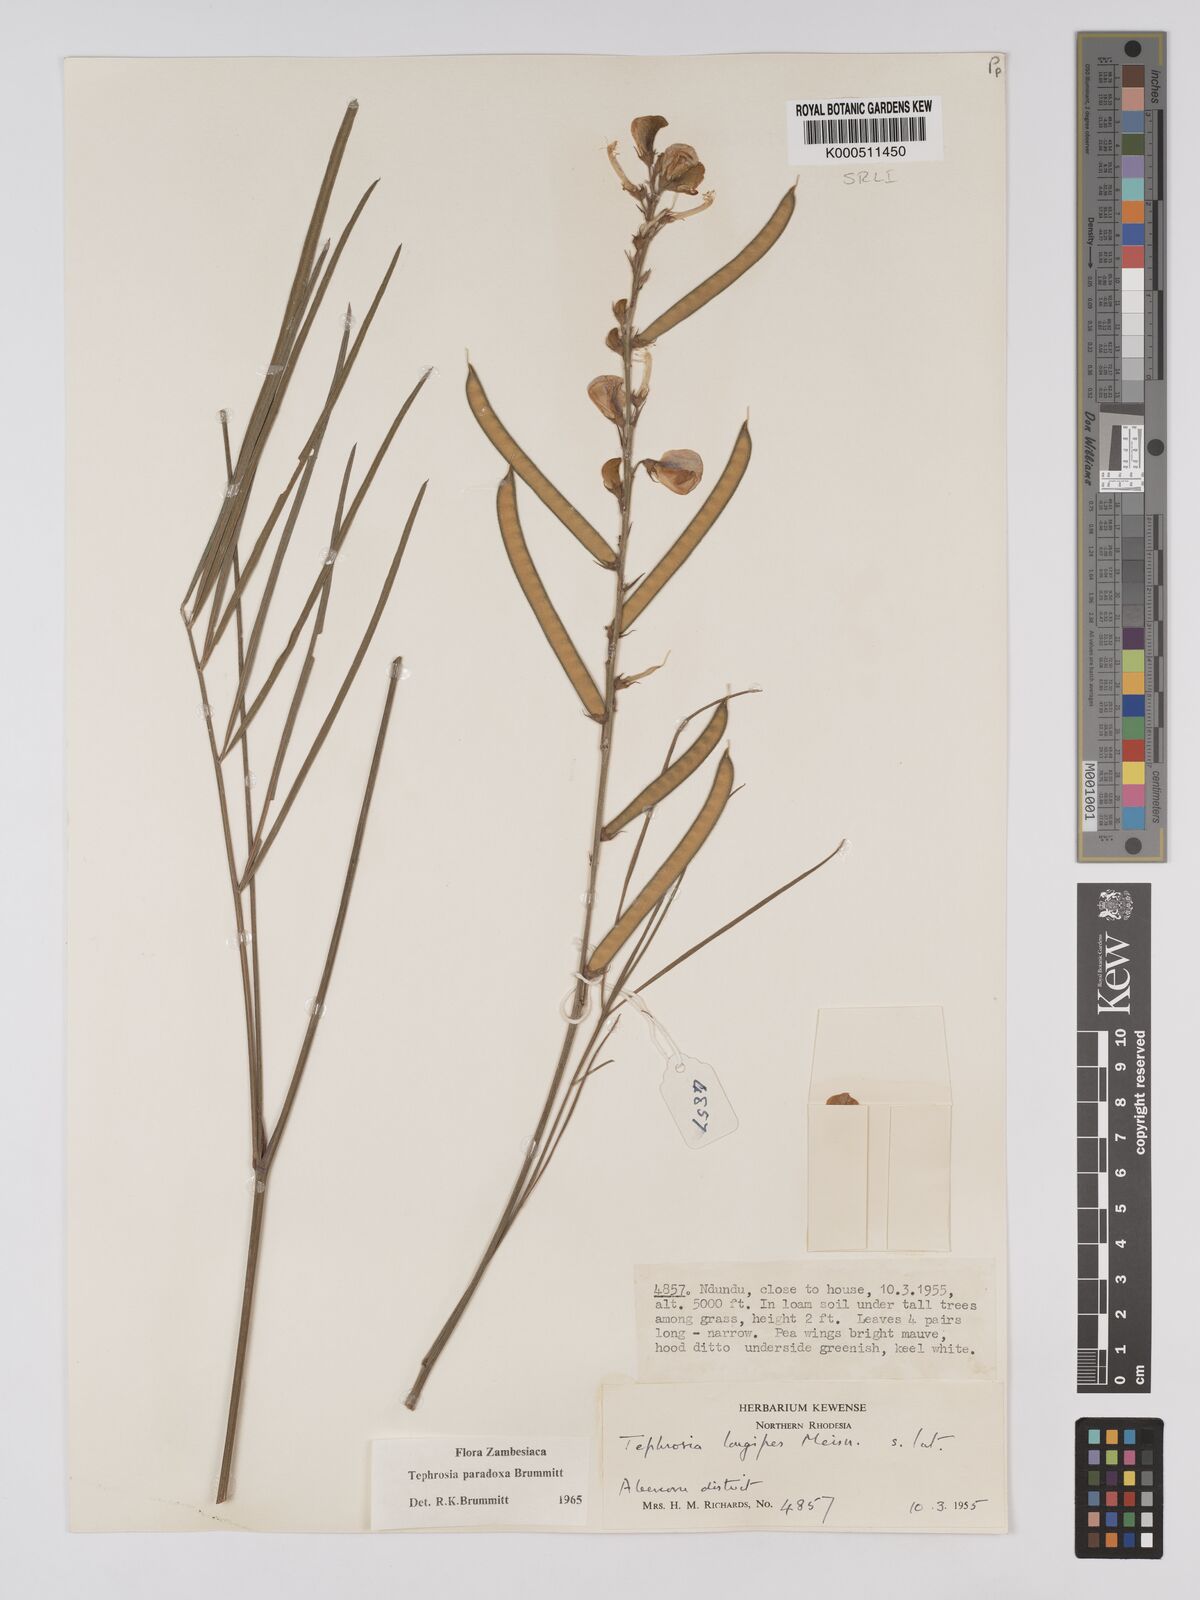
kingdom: Plantae
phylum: Tracheophyta
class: Magnoliopsida
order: Fabales
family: Fabaceae
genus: Tephrosia
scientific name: Tephrosia paradoxa
